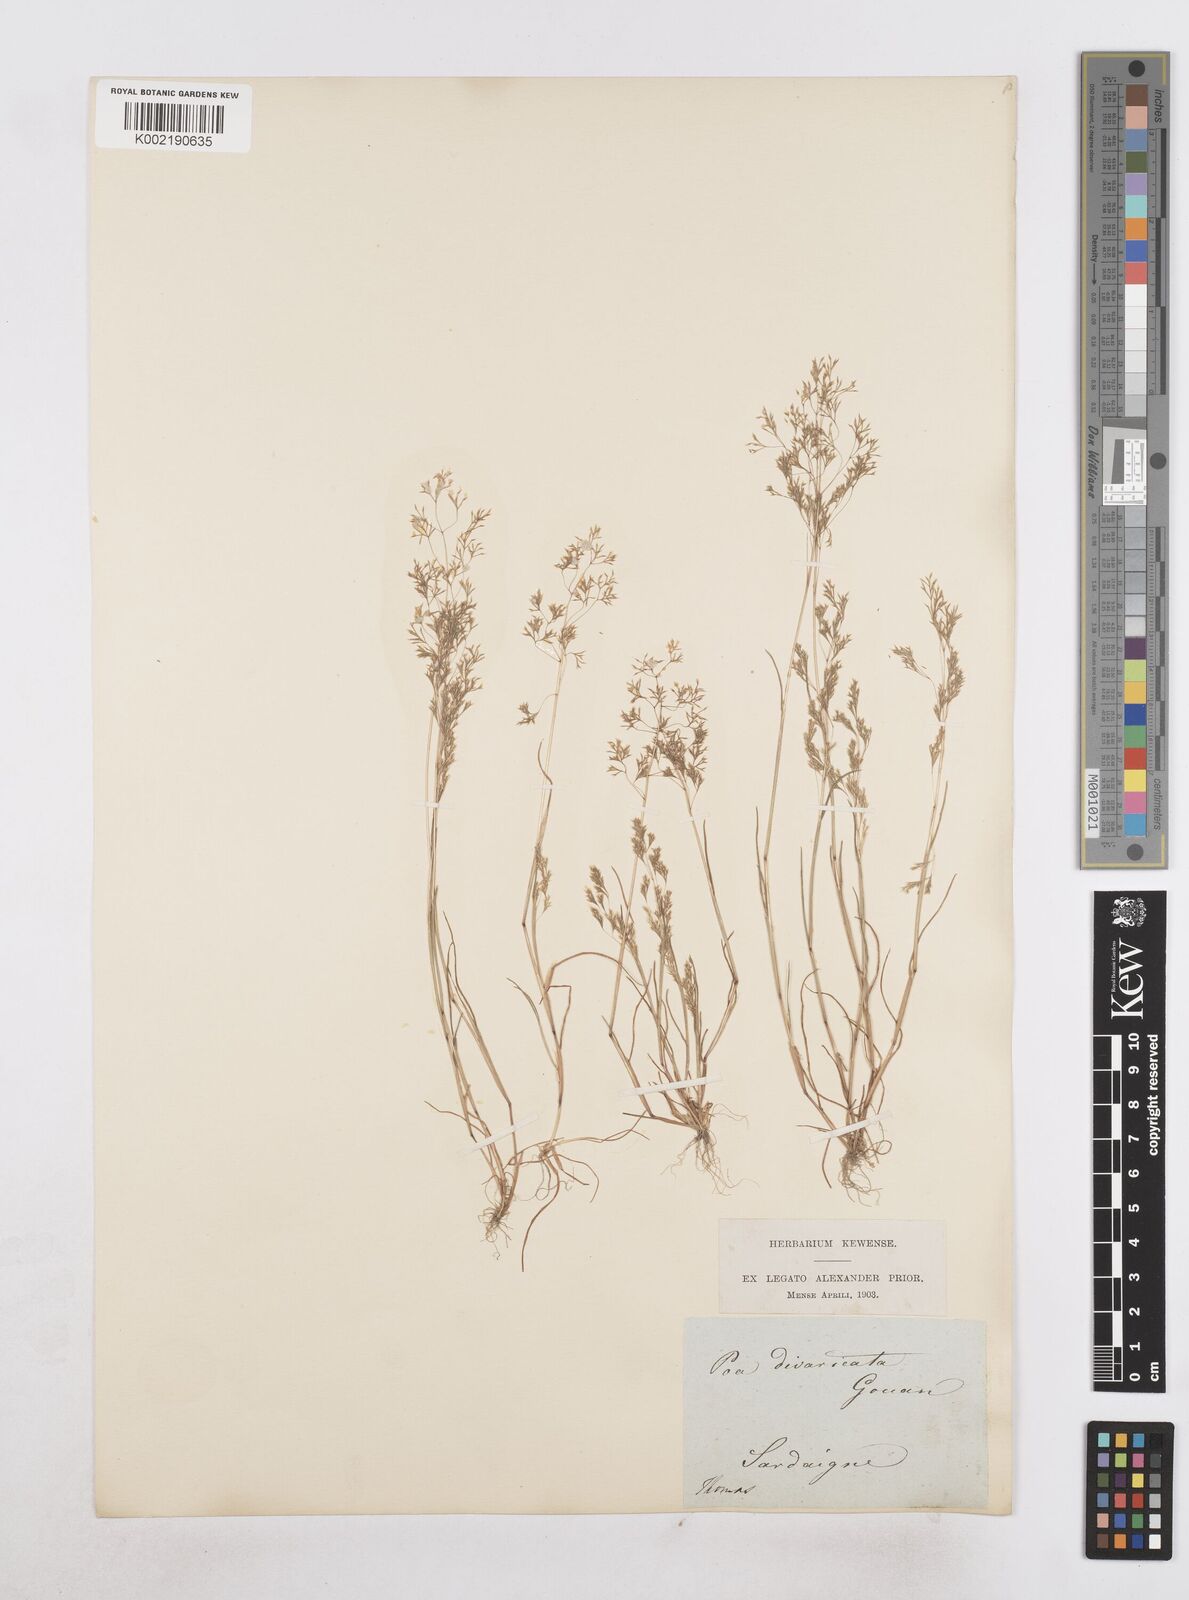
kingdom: Plantae
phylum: Tracheophyta
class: Liliopsida
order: Poales
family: Poaceae
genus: Sphenopus
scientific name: Sphenopus divaricatus
